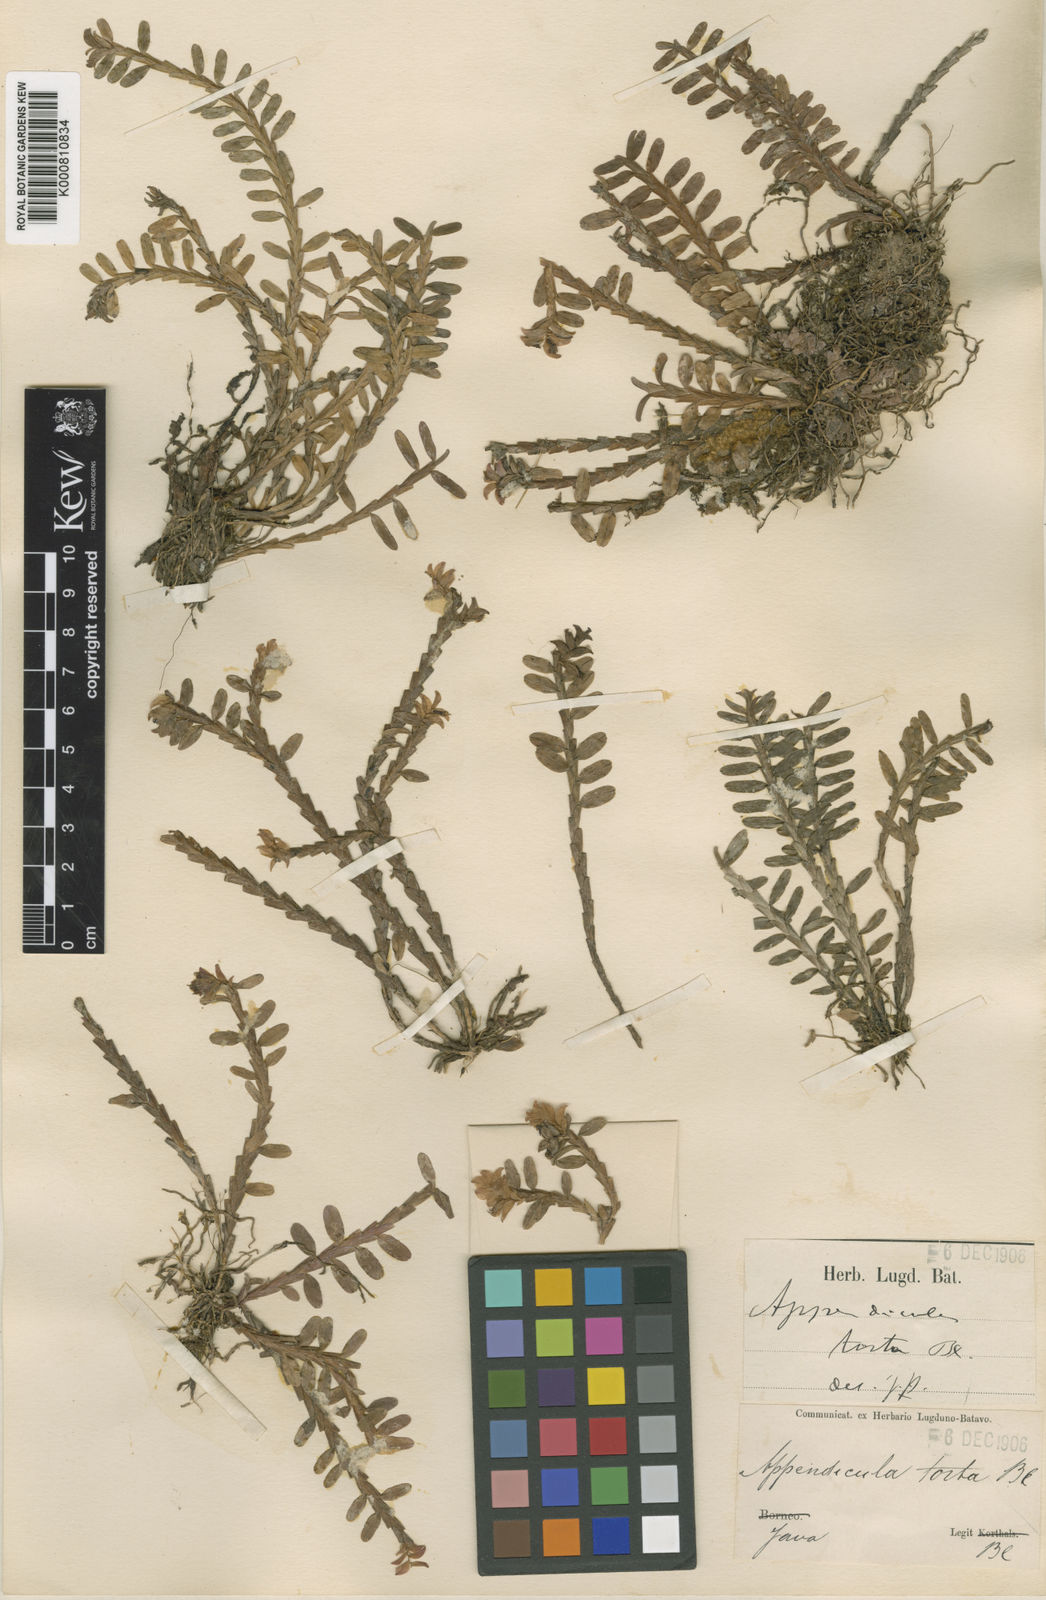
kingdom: Plantae
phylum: Tracheophyta
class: Liliopsida
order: Asparagales
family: Orchidaceae
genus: Appendicula
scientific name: Appendicula torta
